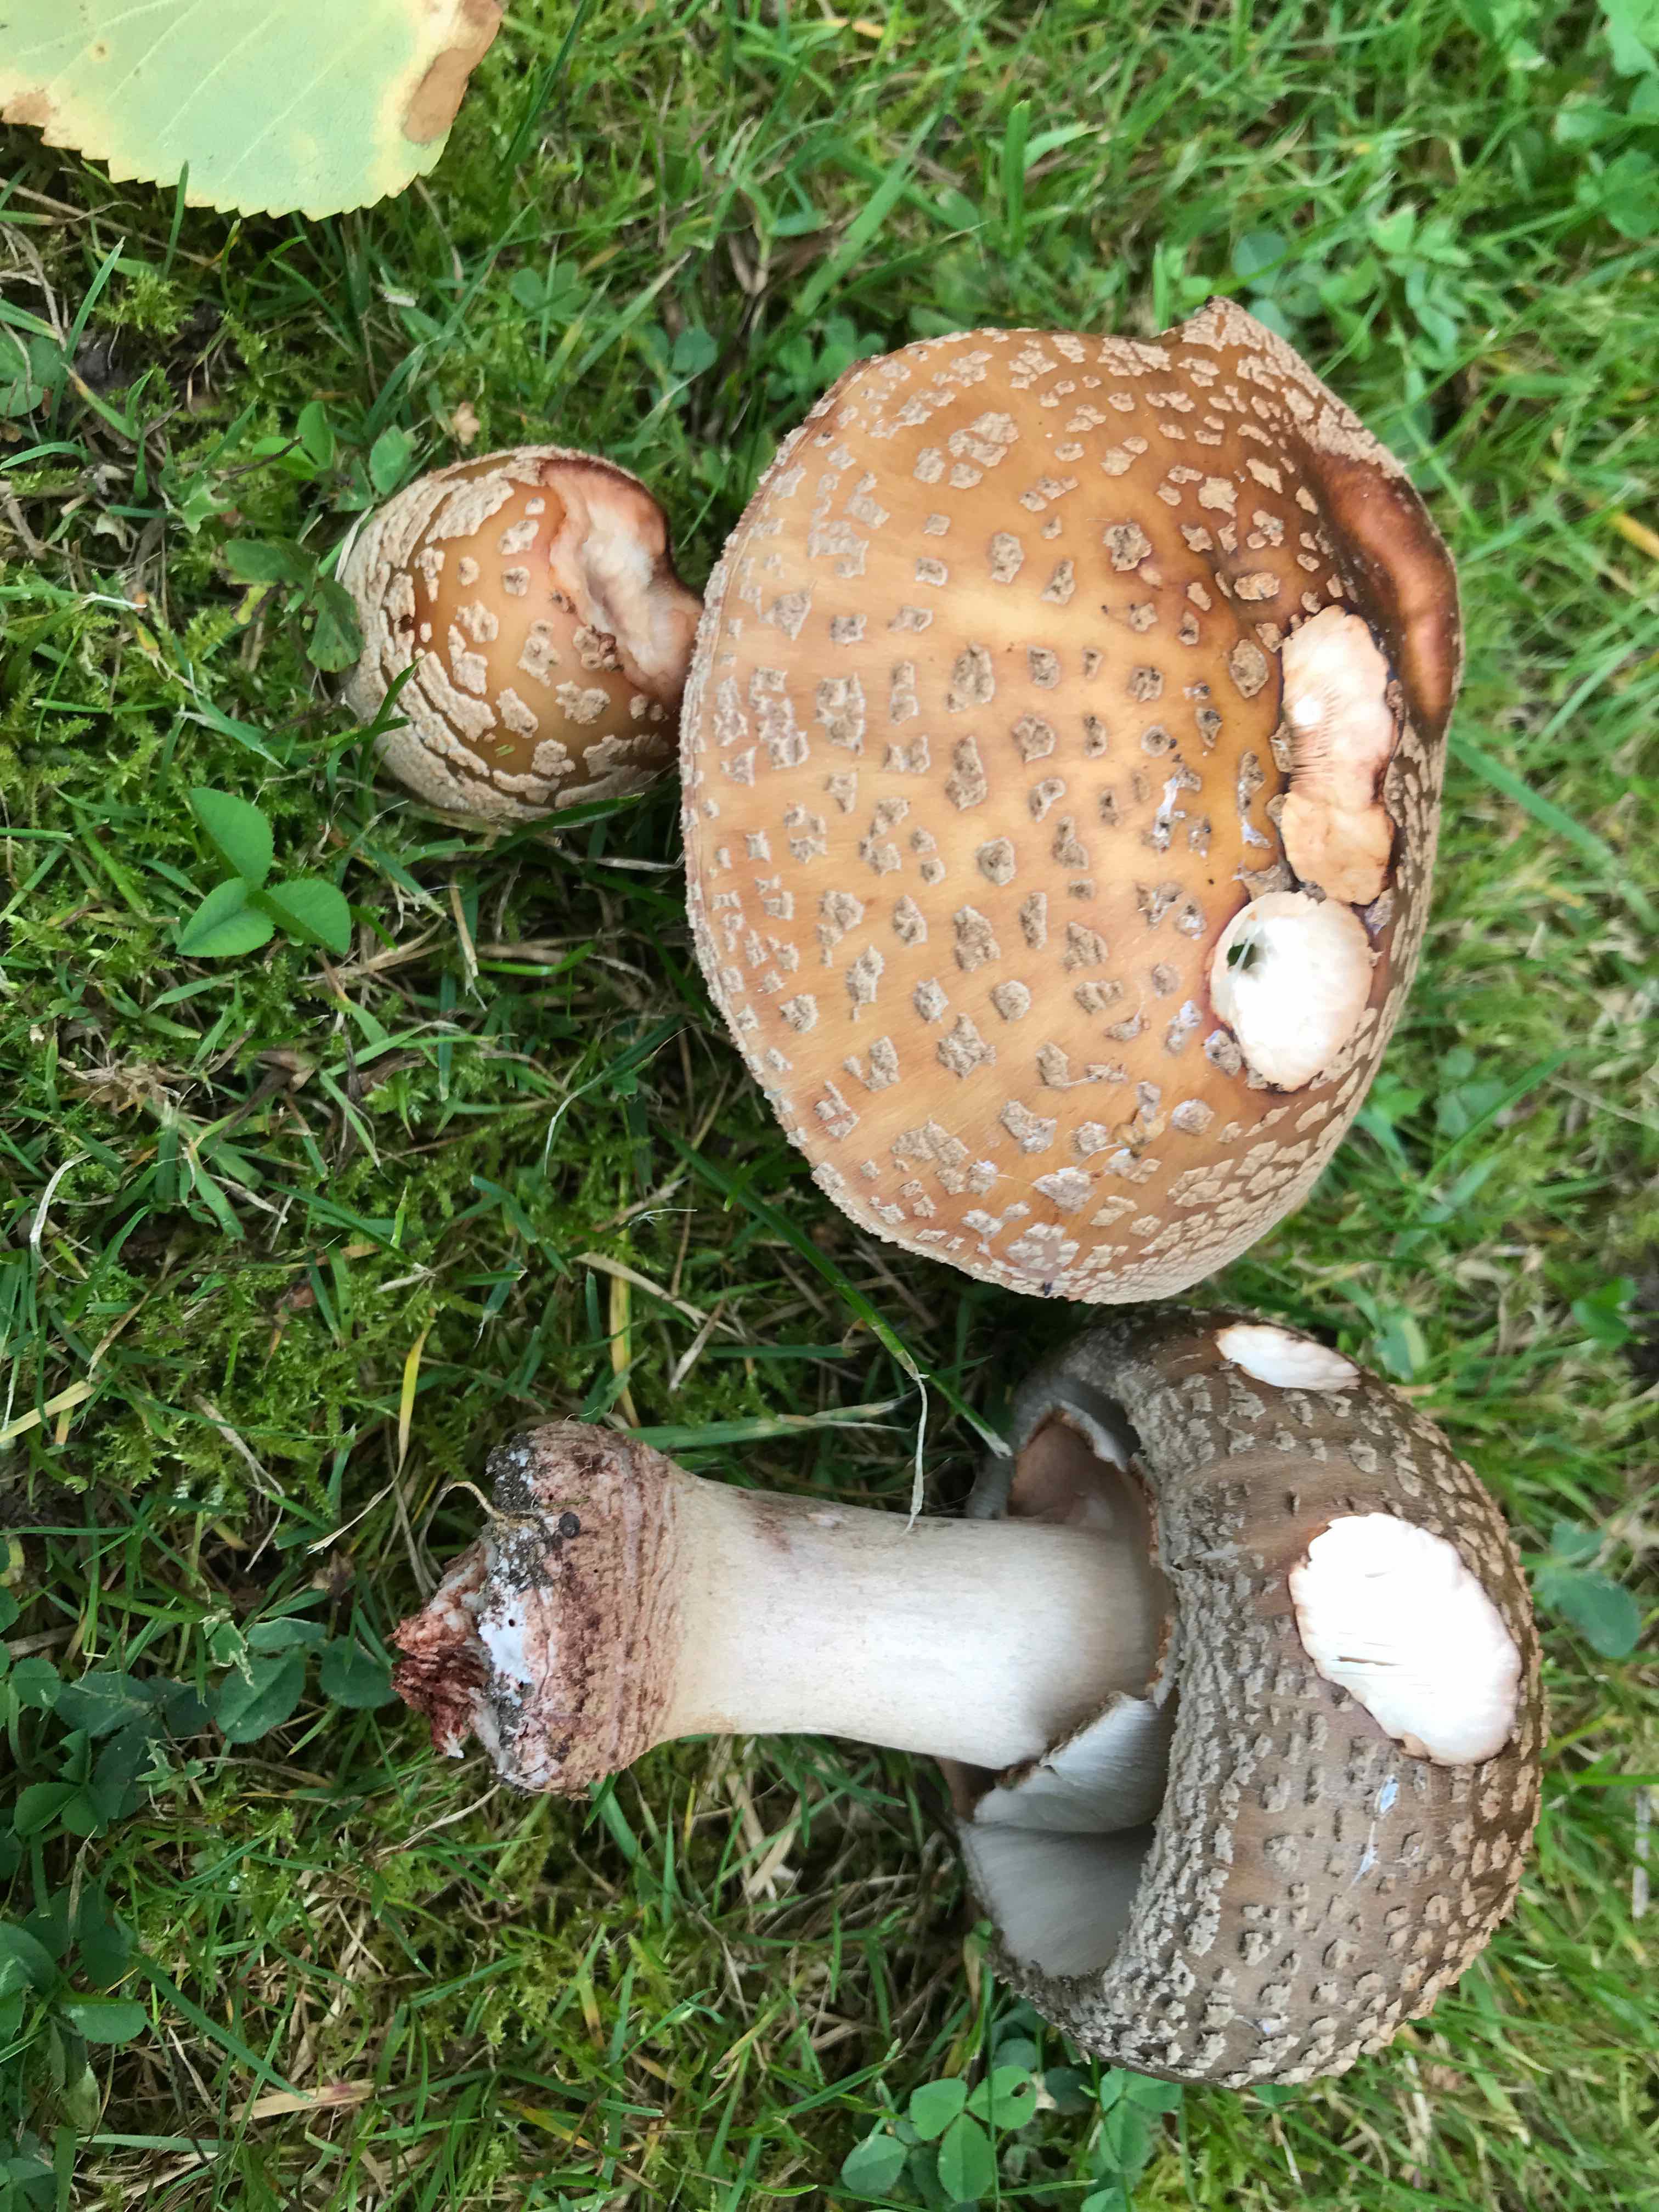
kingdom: Fungi
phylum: Basidiomycota
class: Agaricomycetes
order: Agaricales
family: Amanitaceae
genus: Amanita
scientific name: Amanita rubescens
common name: rødmende fluesvamp
